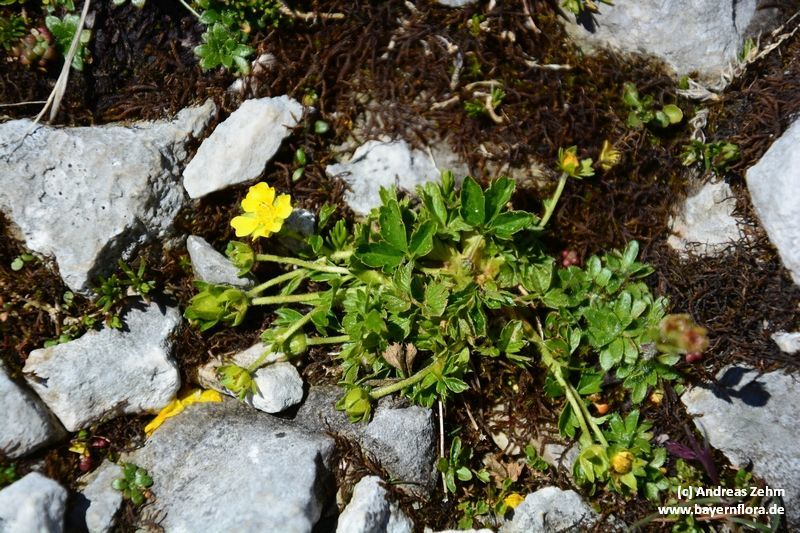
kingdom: Plantae
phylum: Tracheophyta
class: Magnoliopsida
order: Rosales
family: Rosaceae
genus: Potentilla
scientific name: Potentilla brauneana
